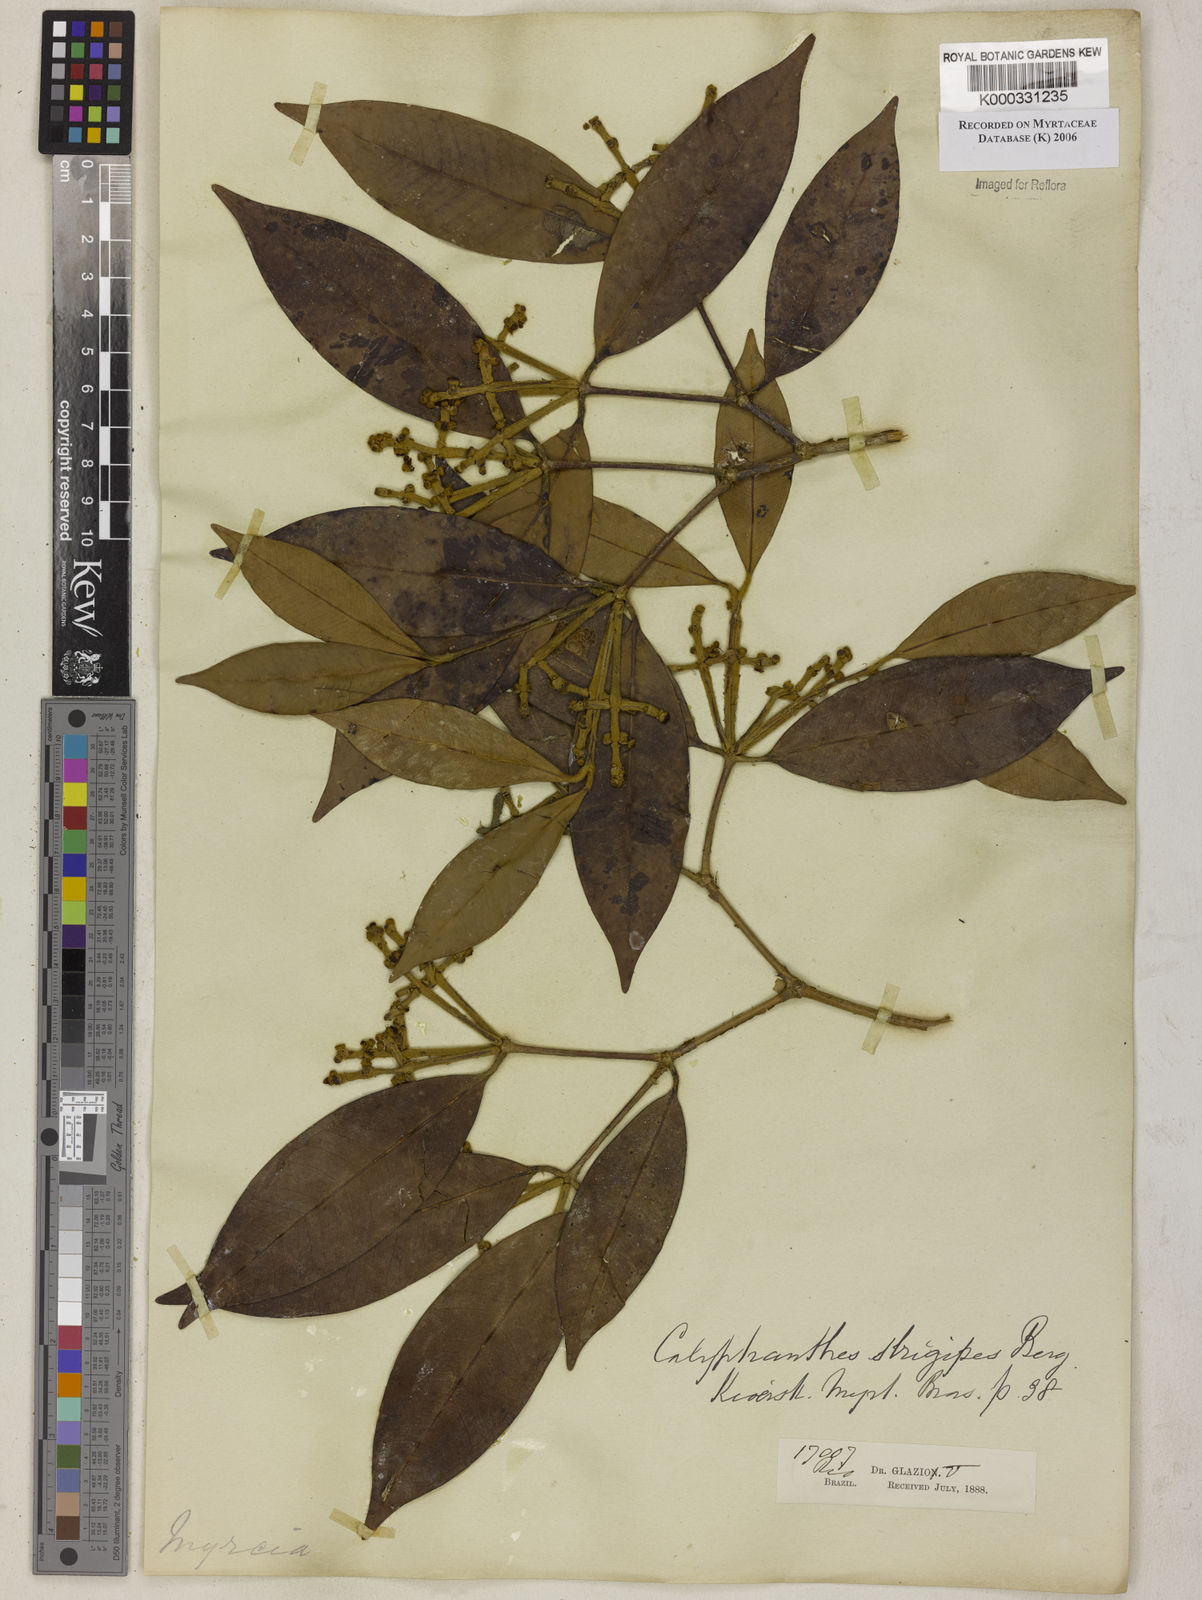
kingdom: Plantae
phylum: Tracheophyta
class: Magnoliopsida
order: Myrtales
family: Myrtaceae
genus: Myrcia
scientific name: Myrcia strigosa
